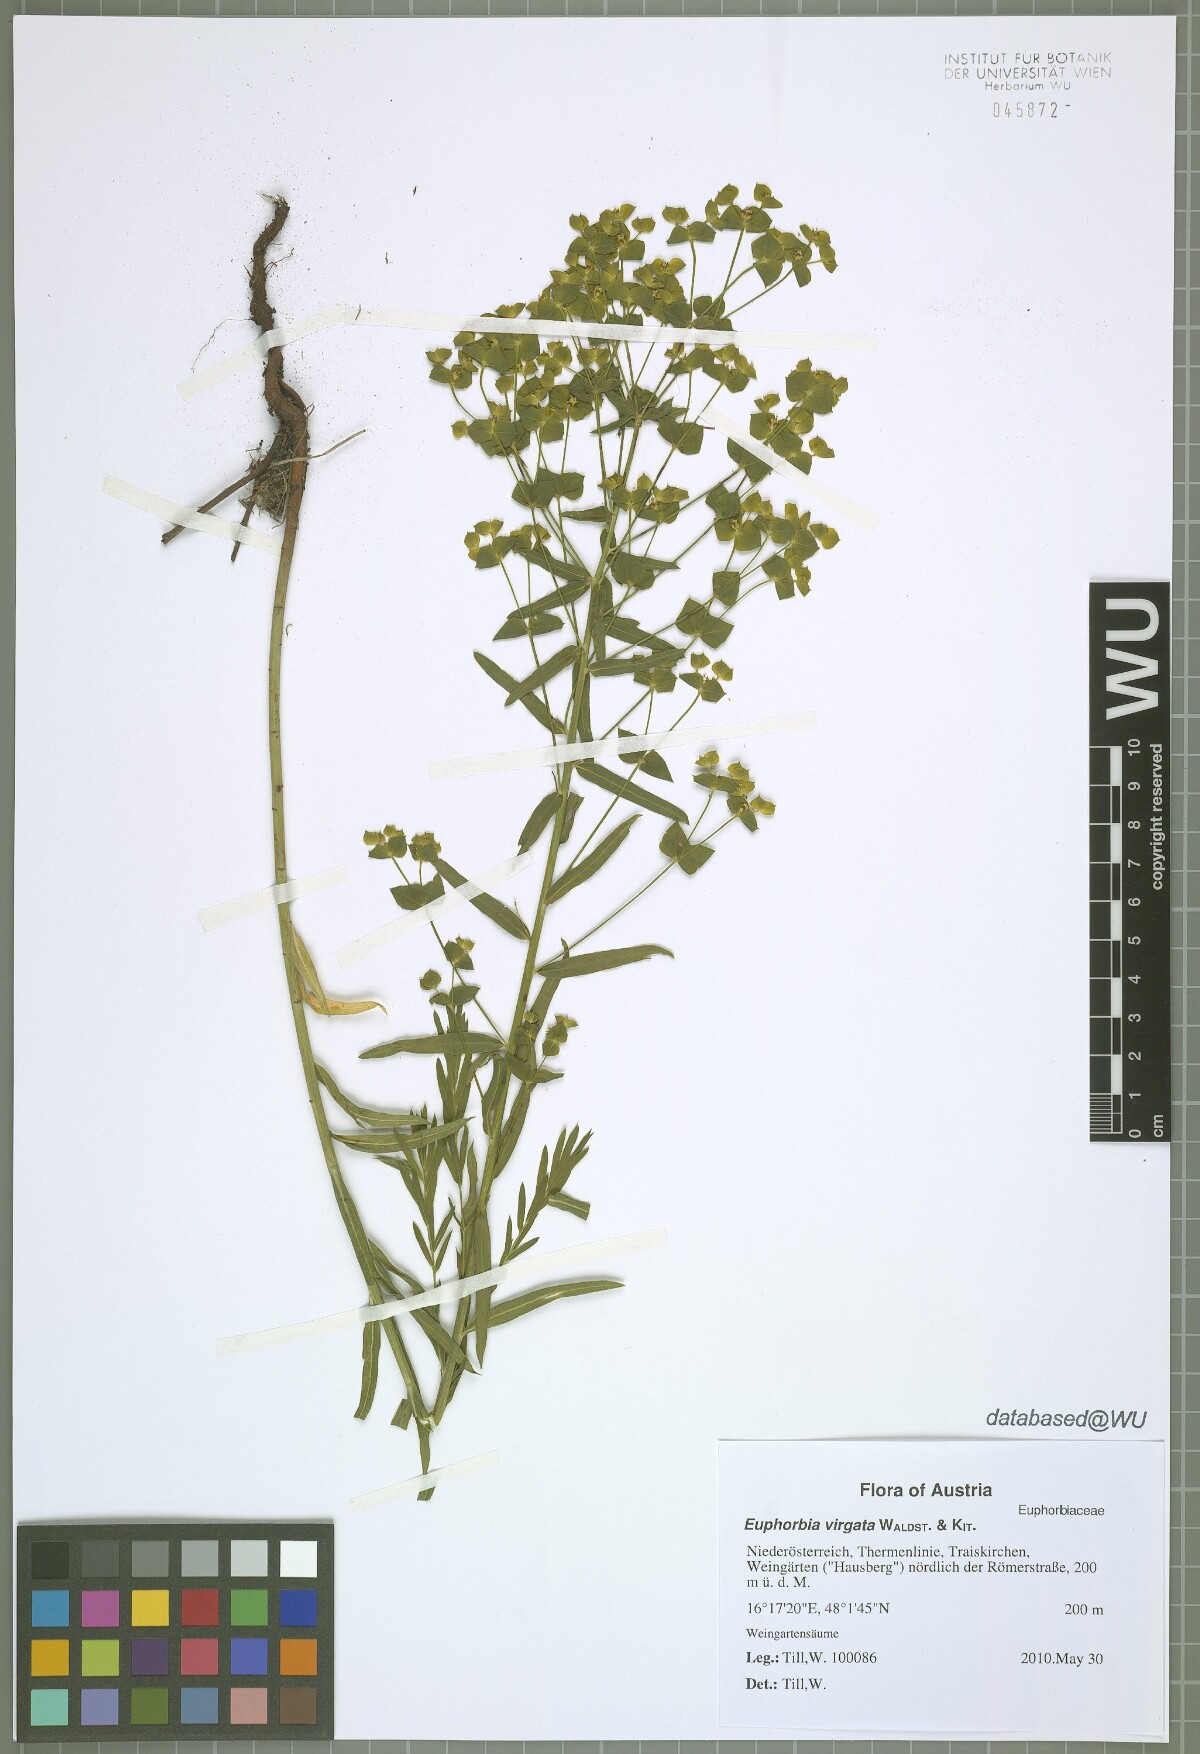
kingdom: Plantae
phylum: Tracheophyta
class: Magnoliopsida
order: Malpighiales
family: Euphorbiaceae
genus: Euphorbia
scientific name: Euphorbia virgata
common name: Leafy spurge
